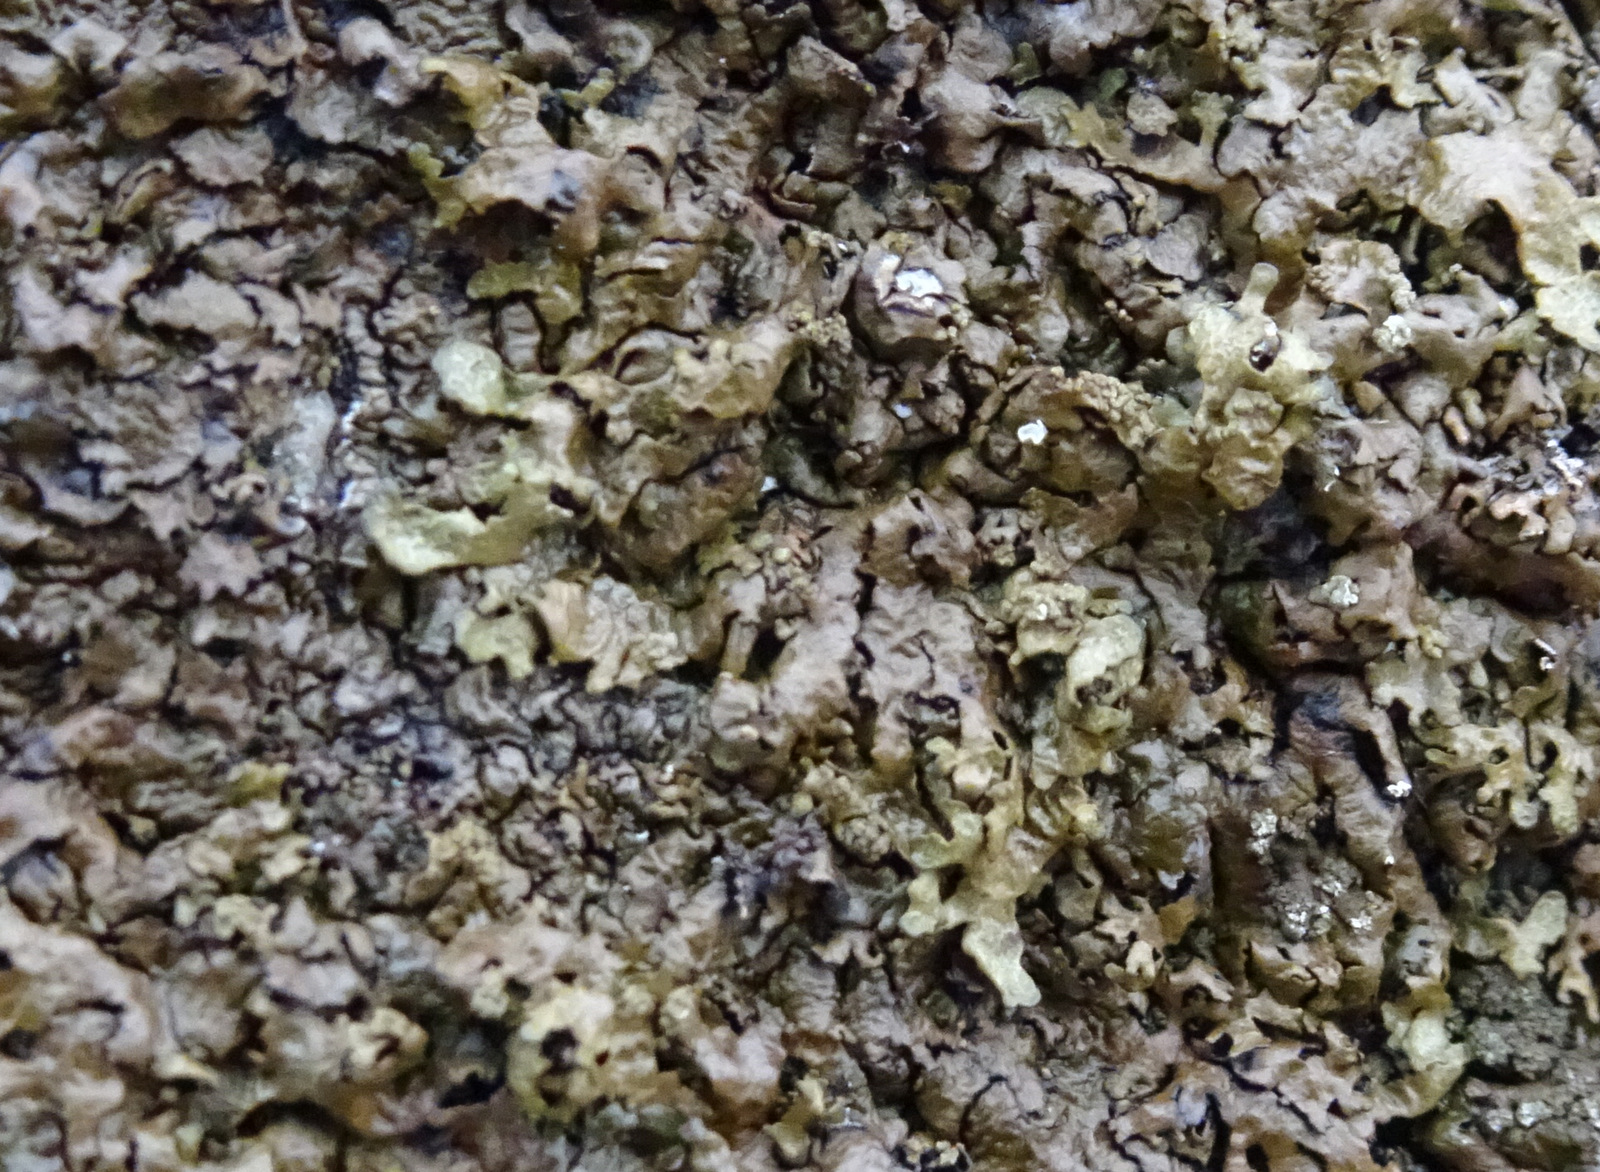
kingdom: Fungi
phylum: Ascomycota
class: Lecanoromycetes
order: Lecanorales
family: Parmeliaceae
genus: Xanthoparmelia
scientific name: Xanthoparmelia
